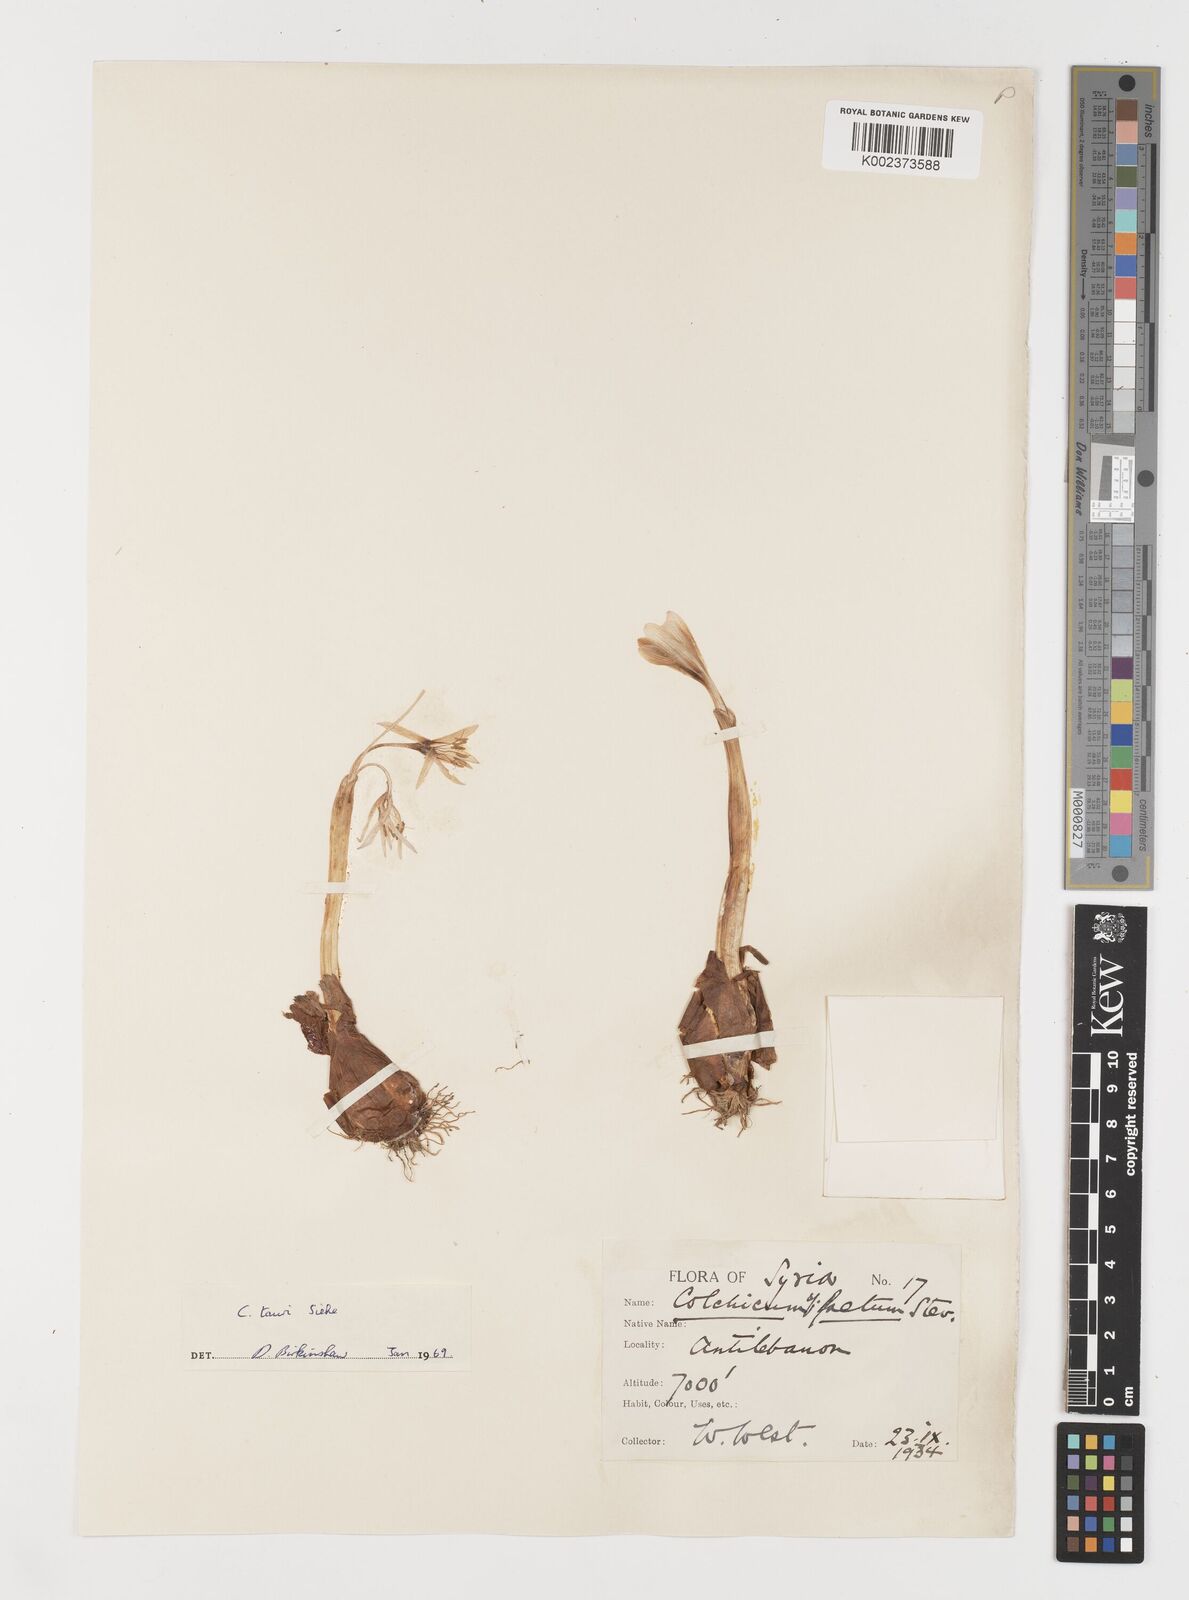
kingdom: Plantae
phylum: Tracheophyta
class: Liliopsida
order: Liliales
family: Colchicaceae
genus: Colchicum
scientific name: Colchicum serpentinum
